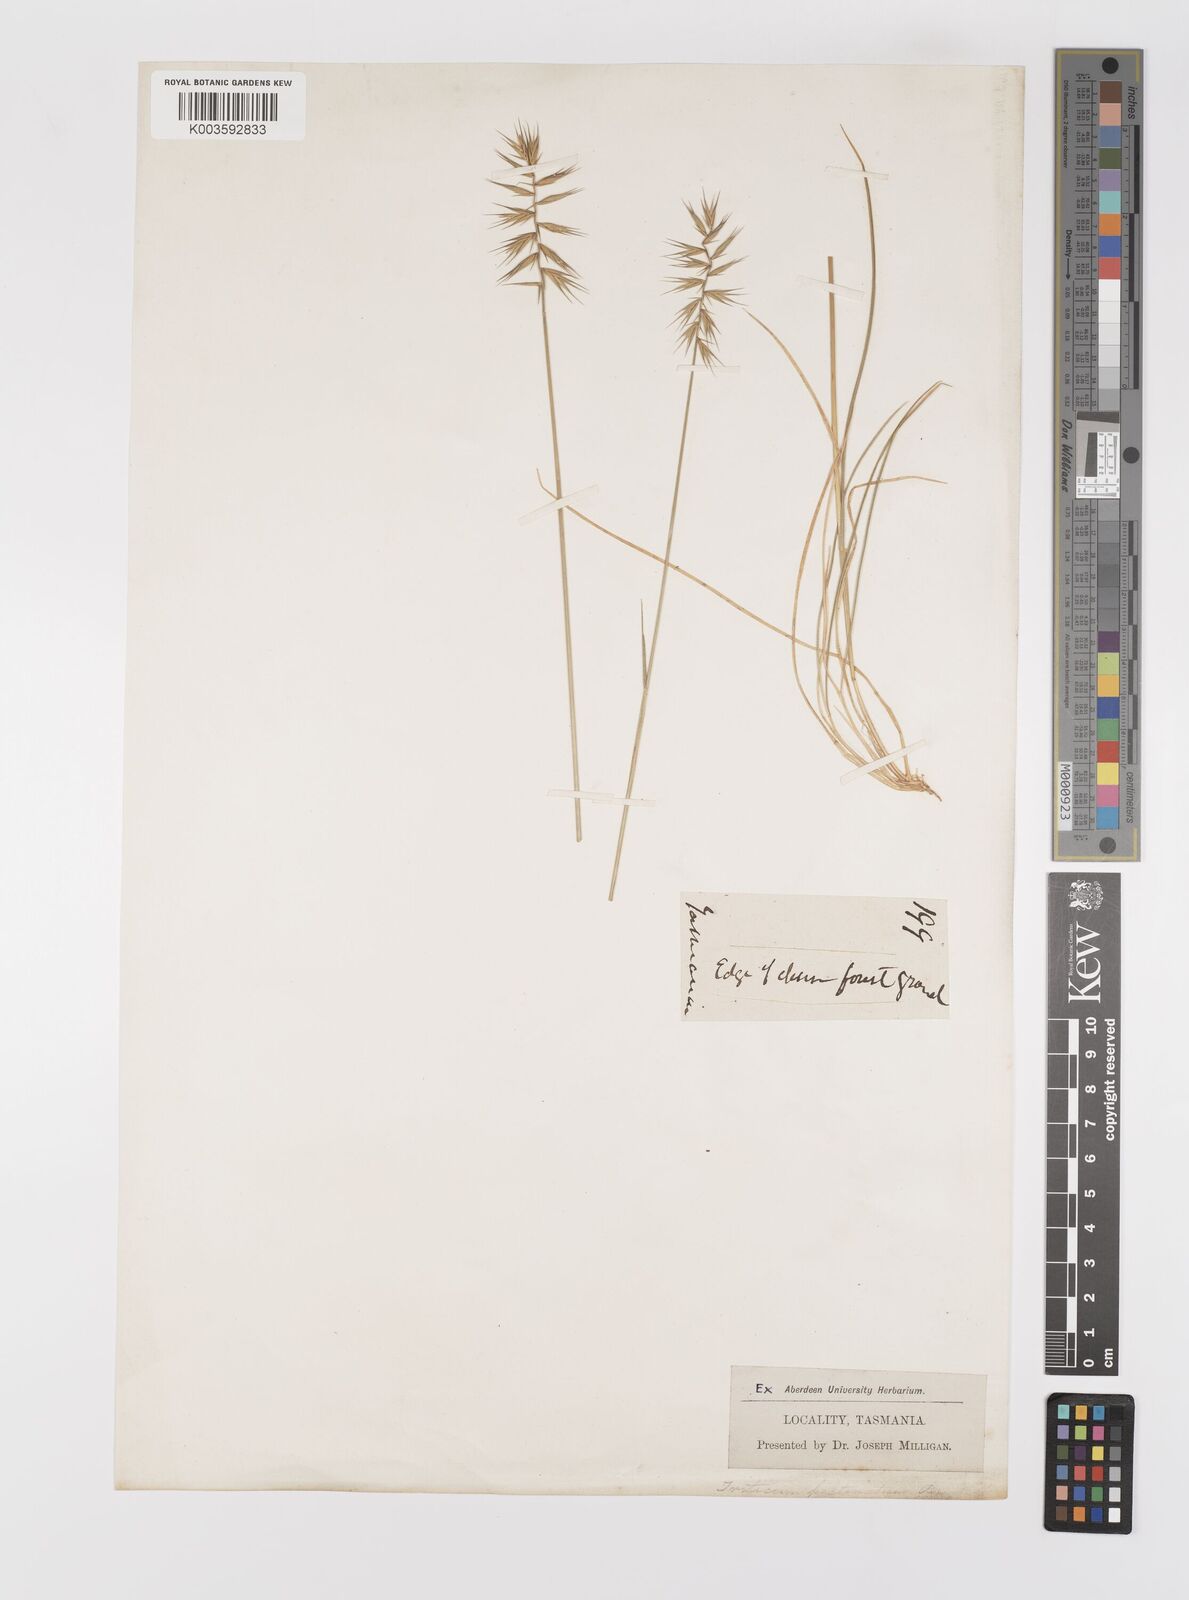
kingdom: Plantae
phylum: Tracheophyta
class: Liliopsida
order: Poales
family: Poaceae
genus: Australopyrum
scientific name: Australopyrum pectinatum
